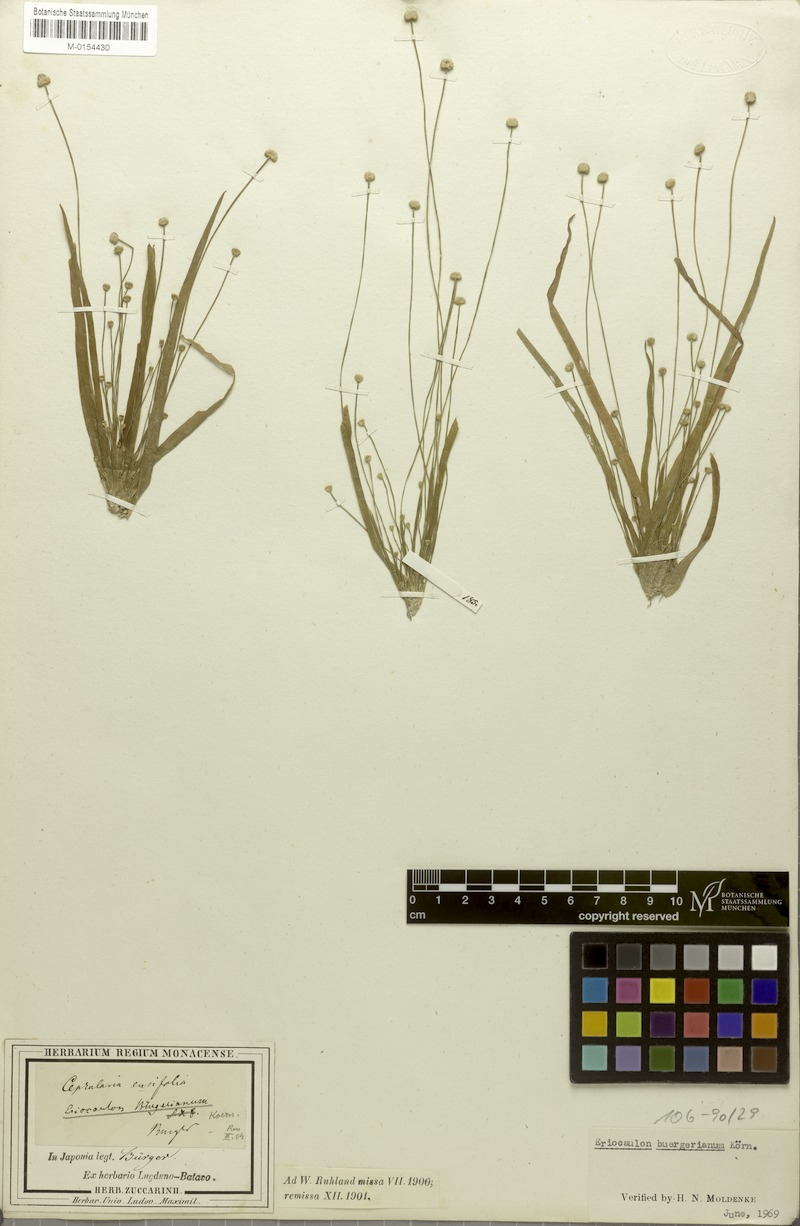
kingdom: Plantae
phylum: Tracheophyta
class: Liliopsida
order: Poales
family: Eriocaulaceae
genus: Eriocaulon
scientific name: Eriocaulon buergerianum
